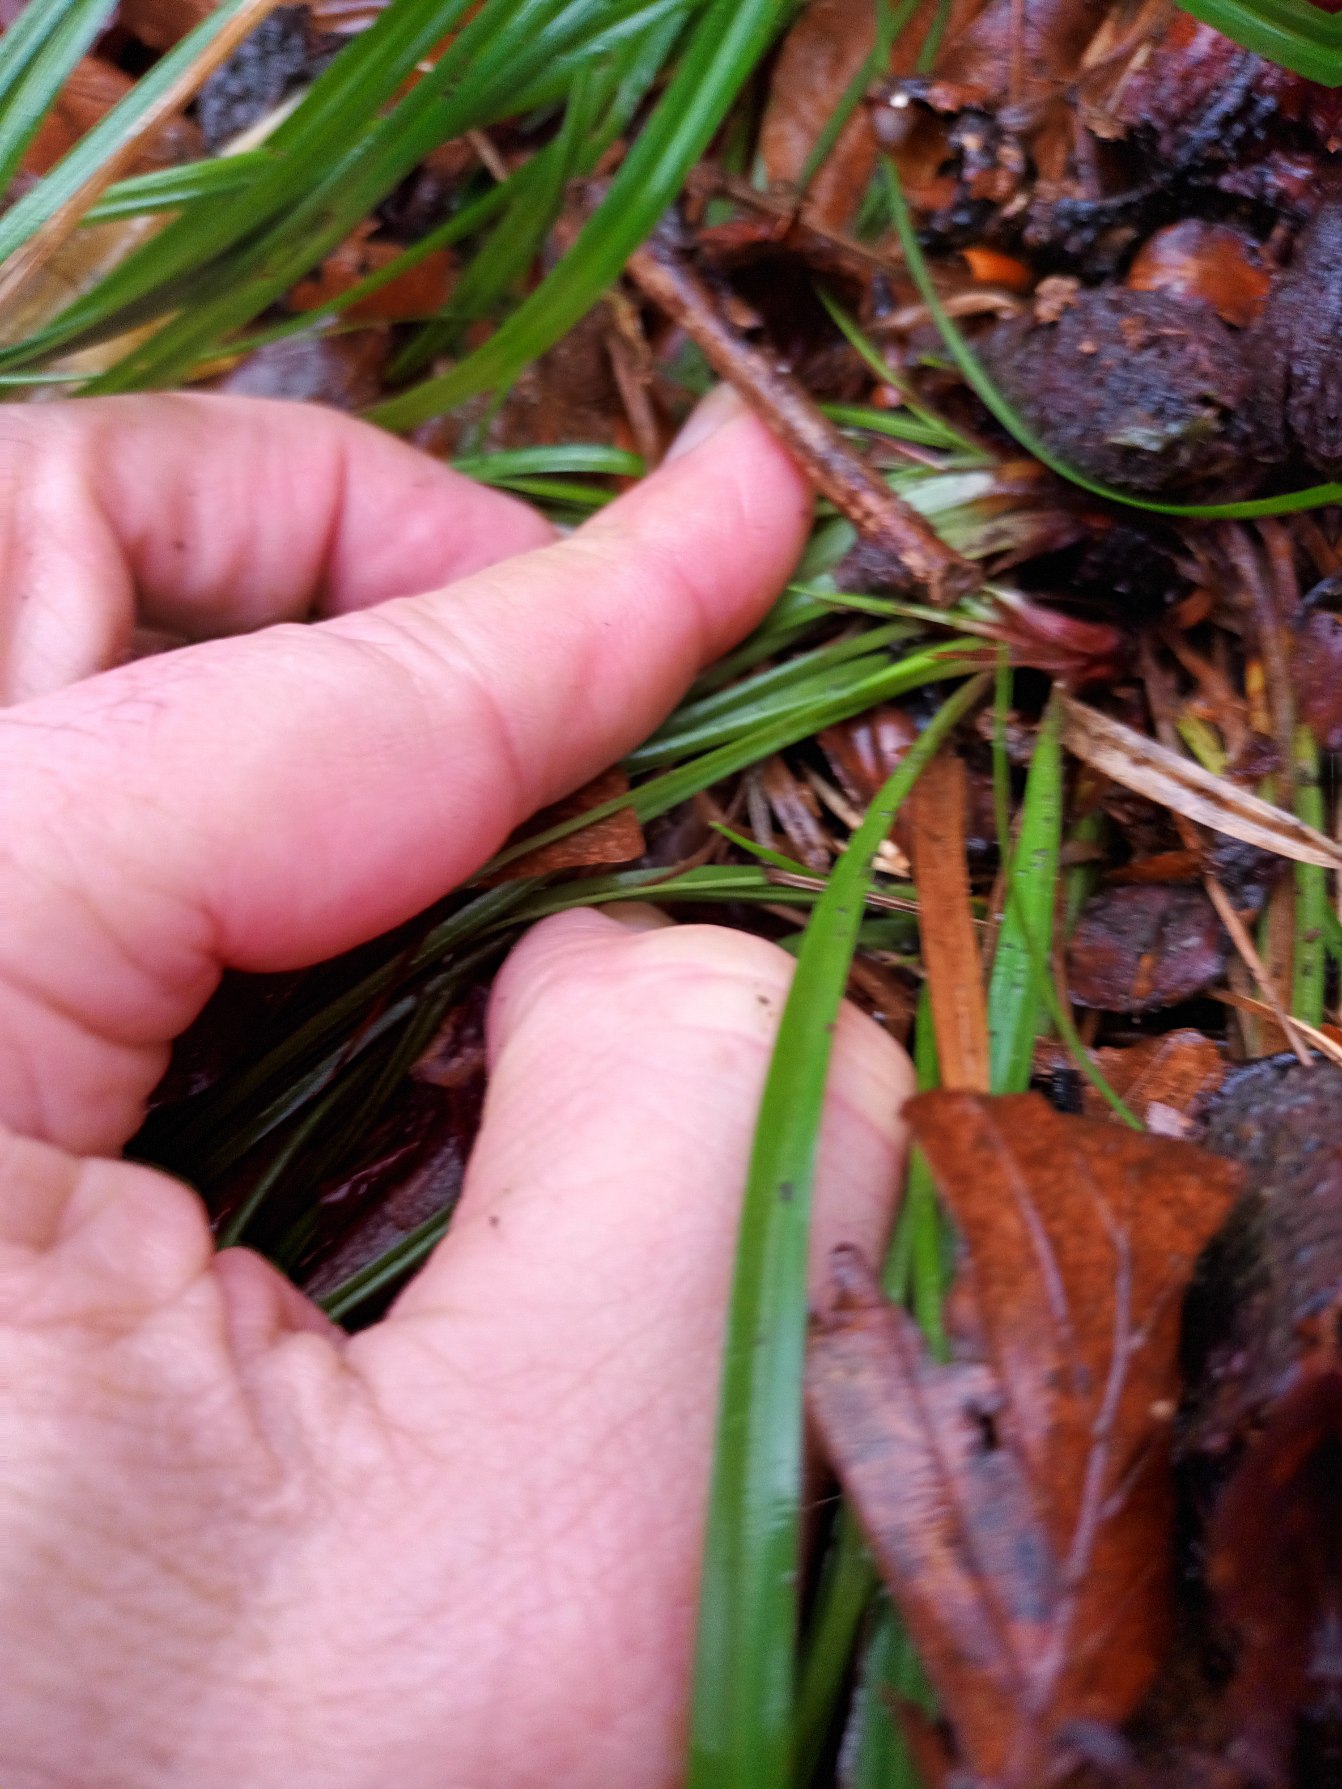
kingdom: Plantae
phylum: Tracheophyta
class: Liliopsida
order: Poales
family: Cyperaceae
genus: Carex
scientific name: Carex digitata
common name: Finger-star
